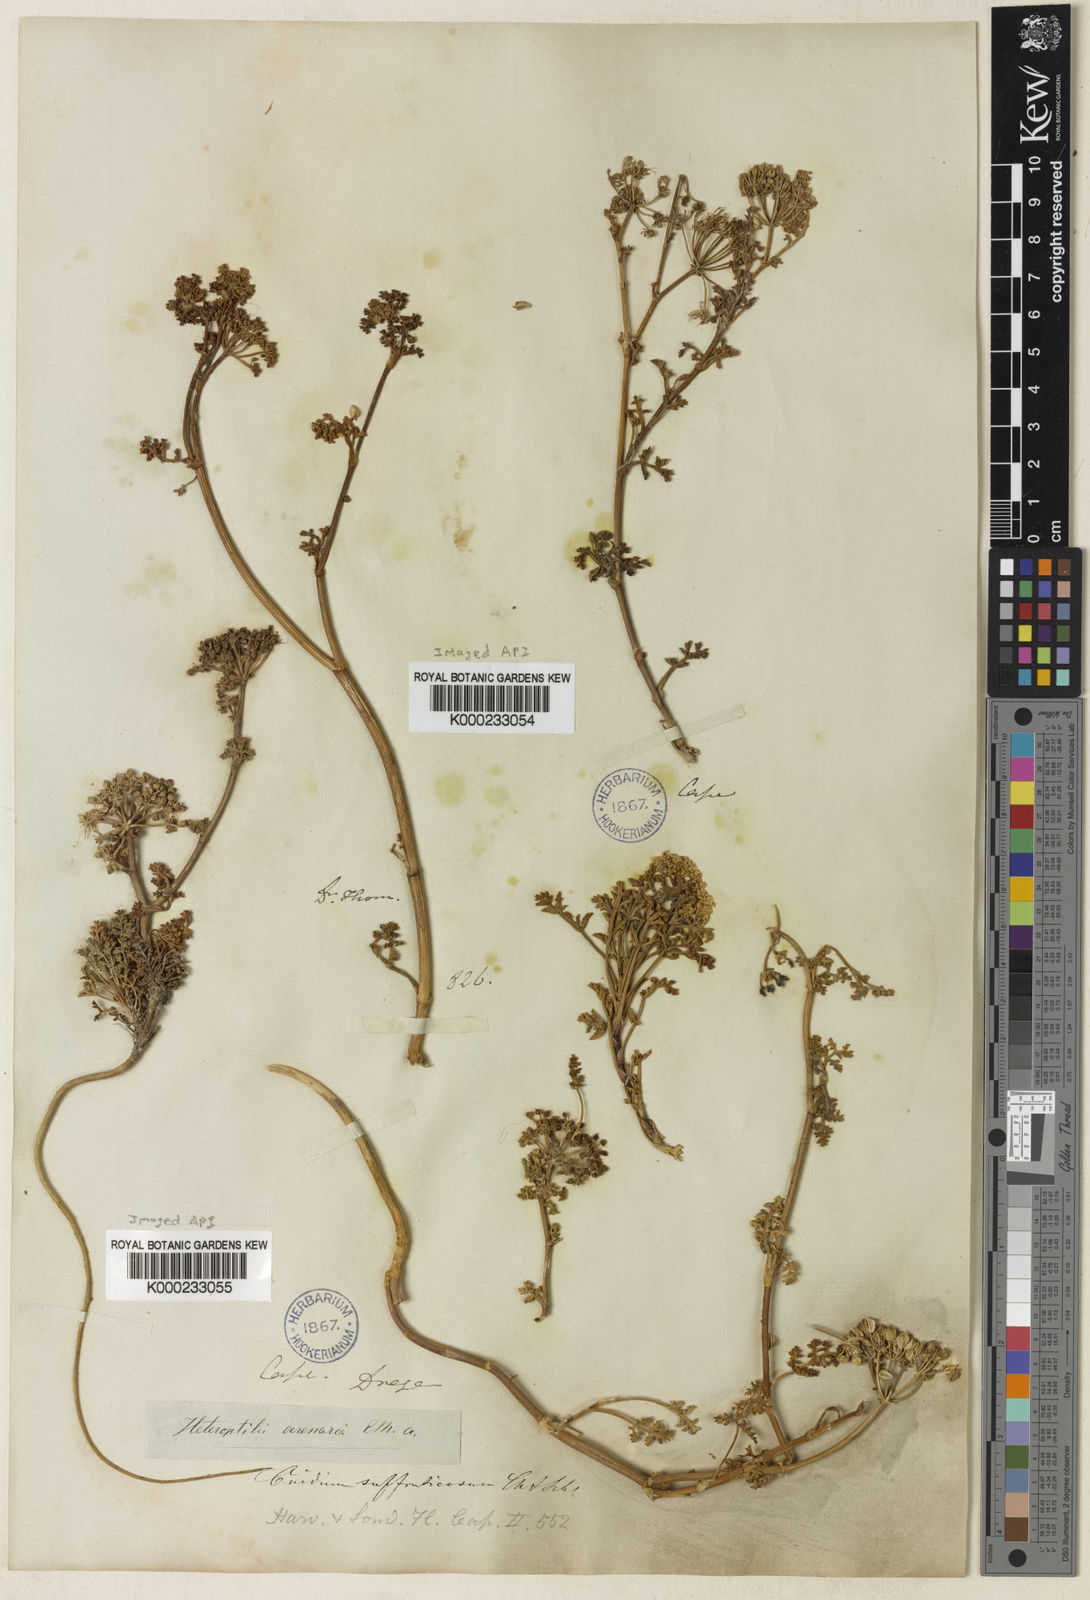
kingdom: Plantae
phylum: Tracheophyta
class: Magnoliopsida
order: Apiales
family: Apiaceae
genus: Dasispermum
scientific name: Dasispermum suffruticosum
